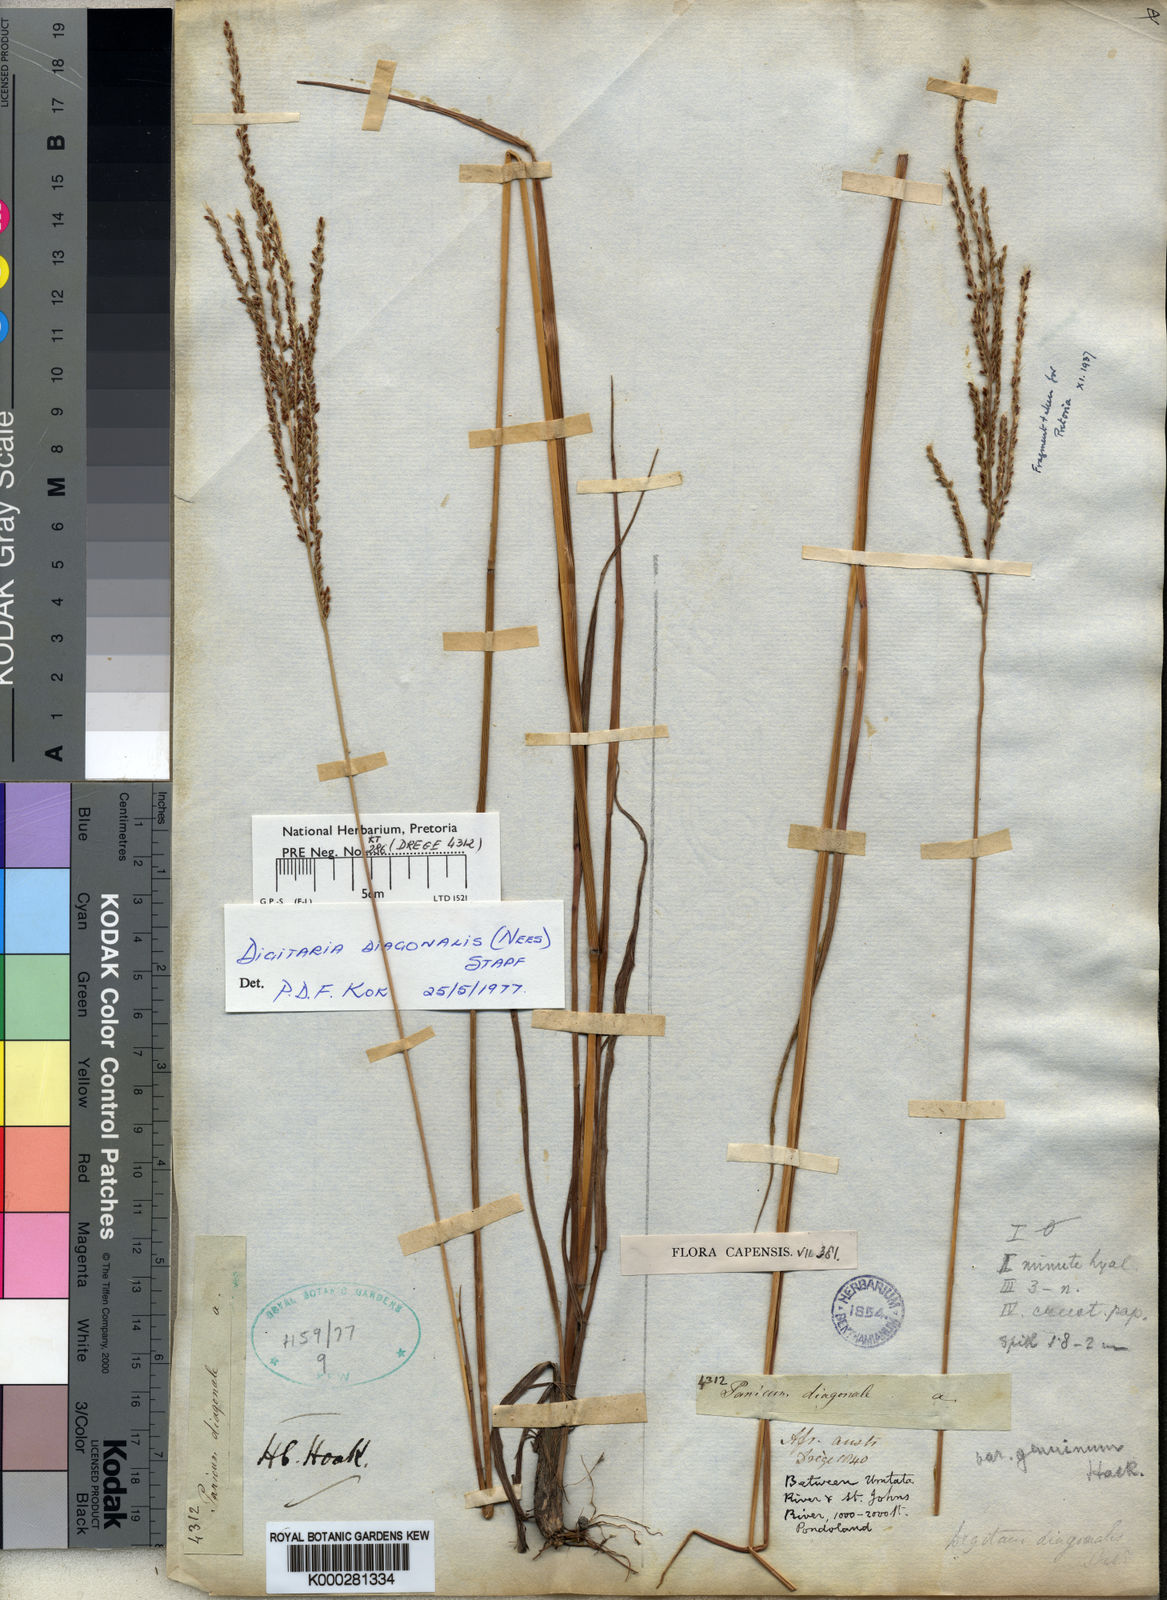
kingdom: Plantae
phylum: Tracheophyta
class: Liliopsida
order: Poales
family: Poaceae
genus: Digitaria
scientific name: Digitaria diagonalis
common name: Brown-seed finger grass
